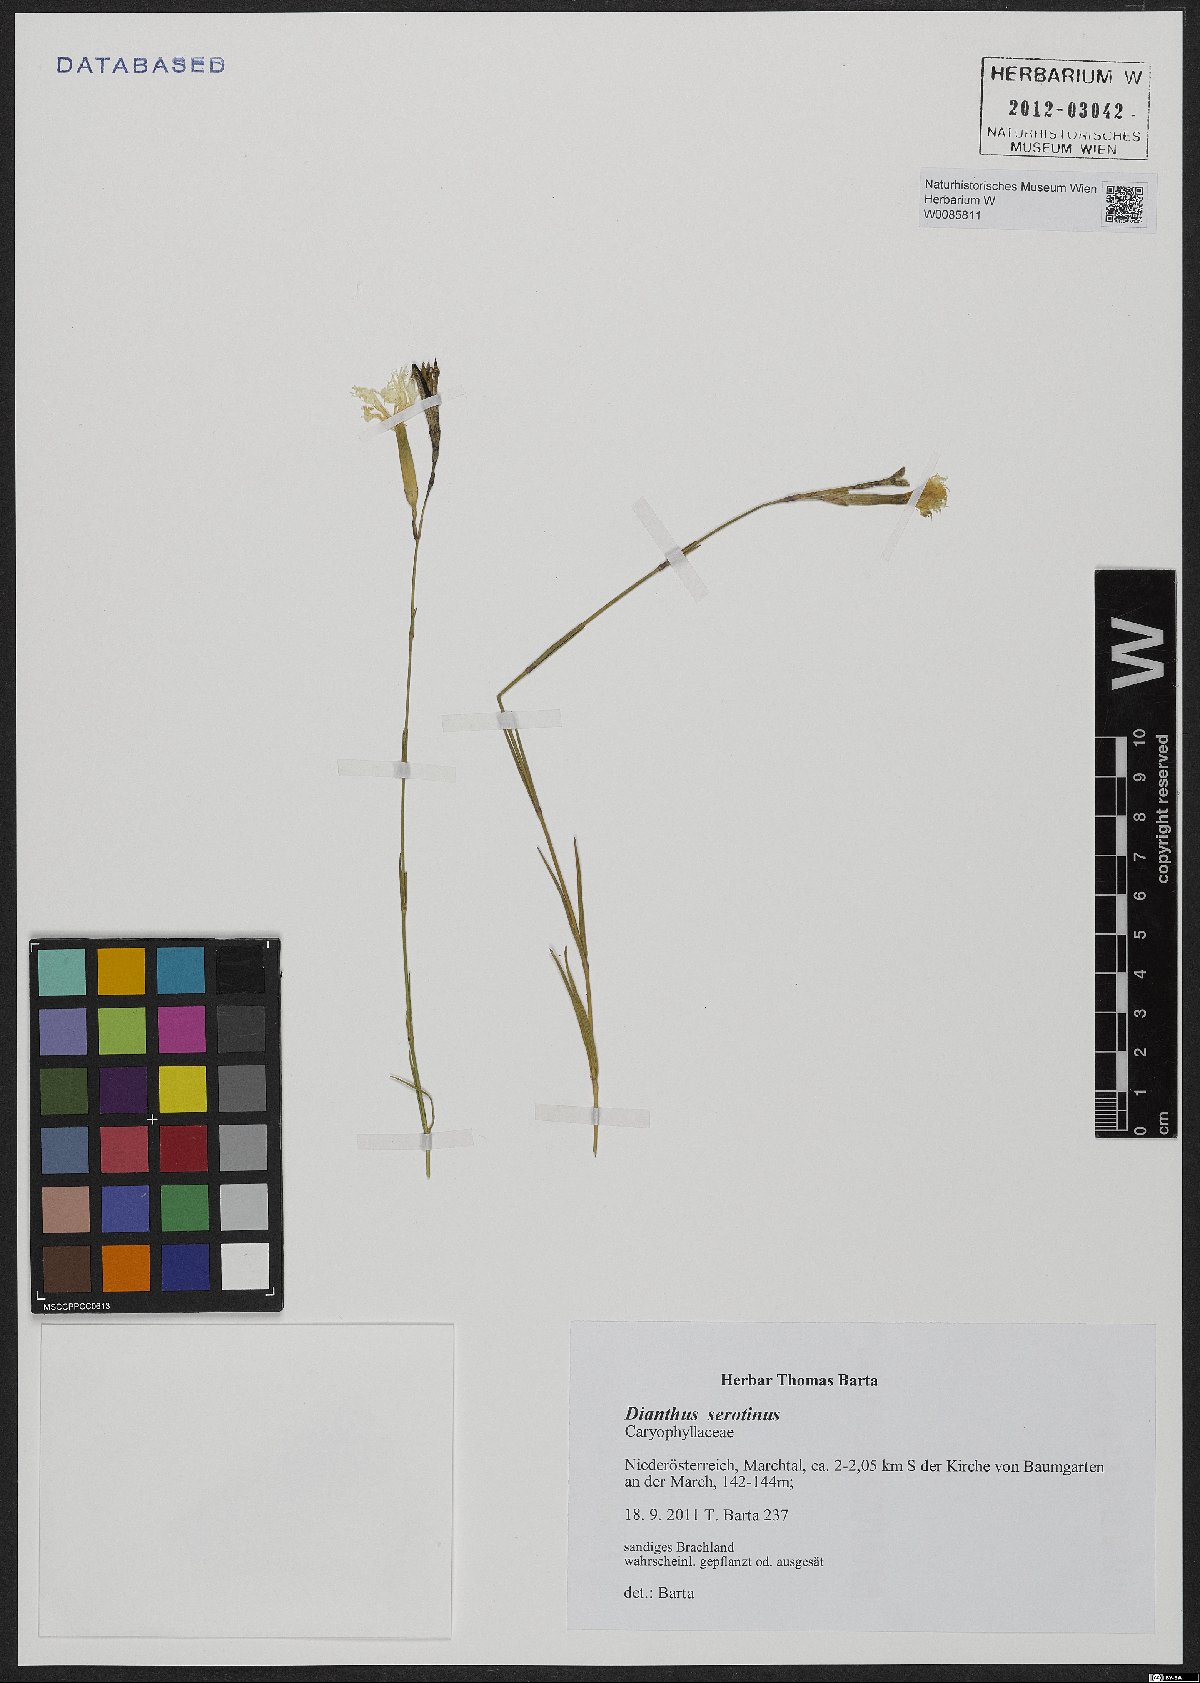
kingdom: Plantae
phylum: Tracheophyta
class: Magnoliopsida
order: Caryophyllales
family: Caryophyllaceae
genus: Dianthus
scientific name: Dianthus serotinus
